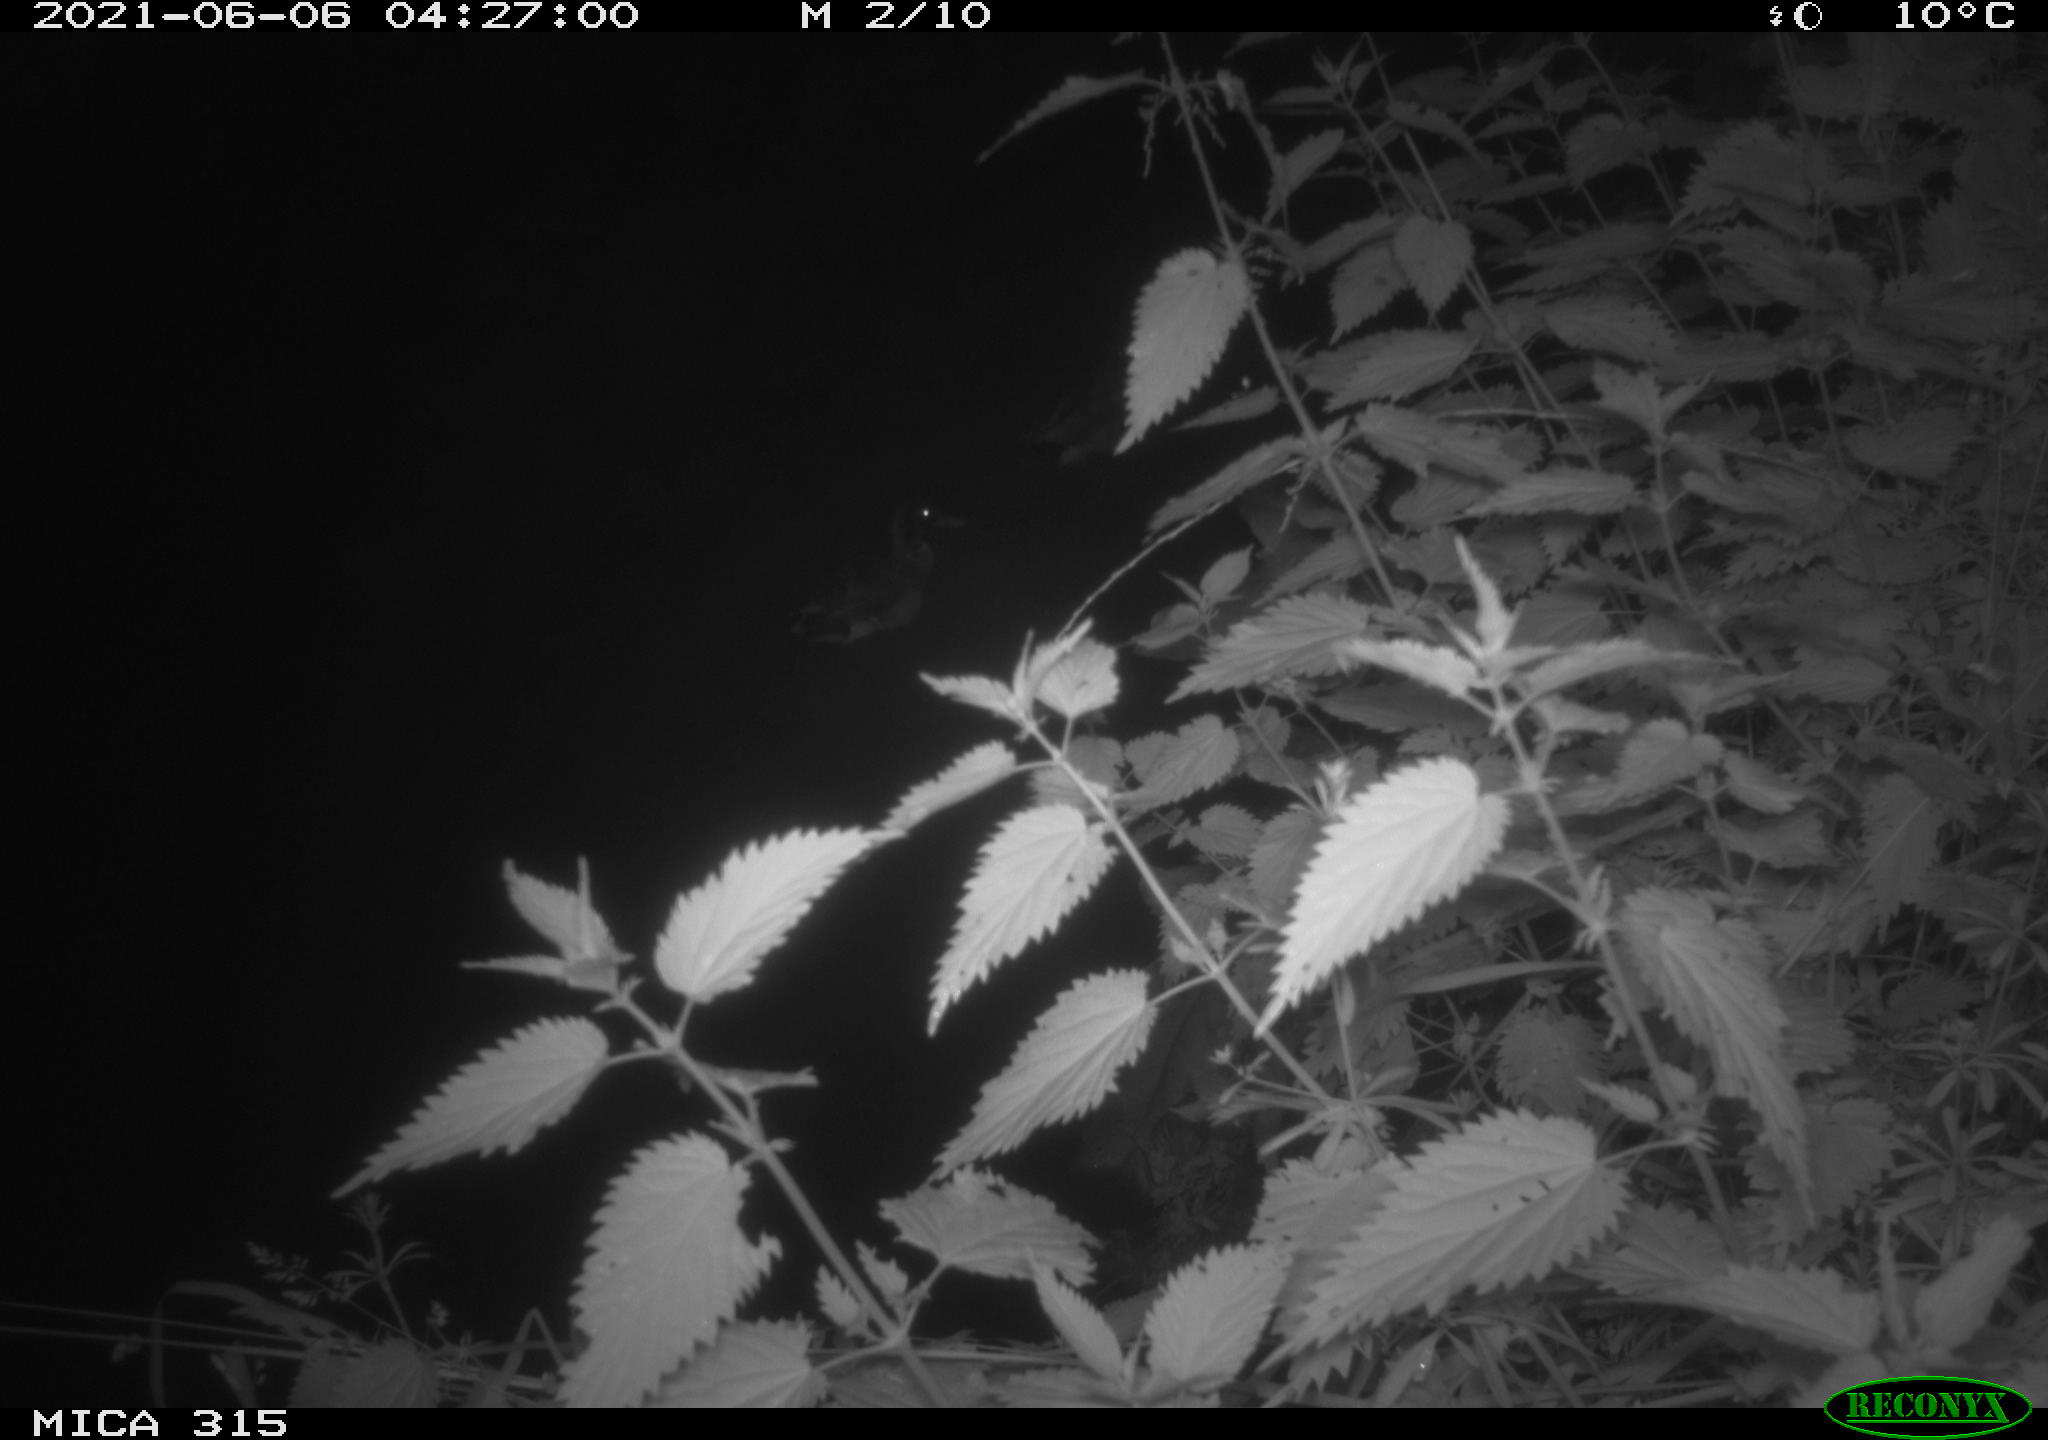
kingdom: Animalia
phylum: Chordata
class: Aves
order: Anseriformes
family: Anatidae
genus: Anas
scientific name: Anas
